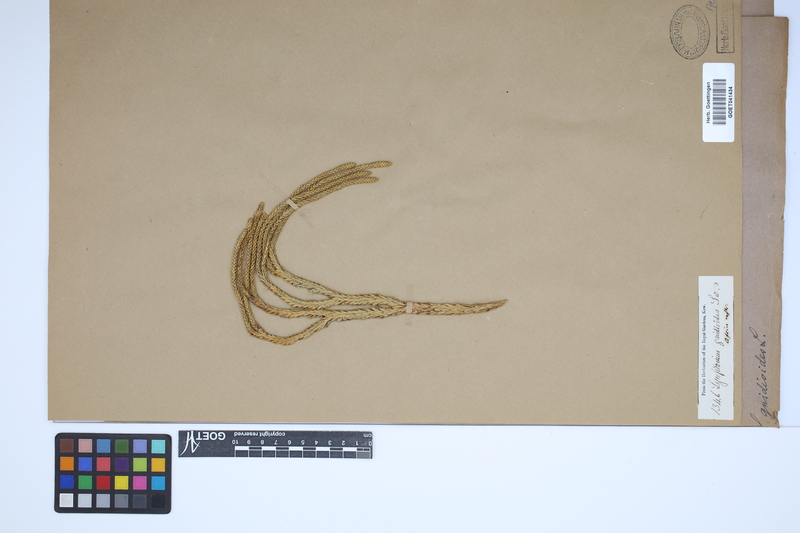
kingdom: Plantae
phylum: Tracheophyta
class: Lycopodiopsida
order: Lycopodiales
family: Lycopodiaceae
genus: Phlegmariurus
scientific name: Phlegmariurus gnidioides
